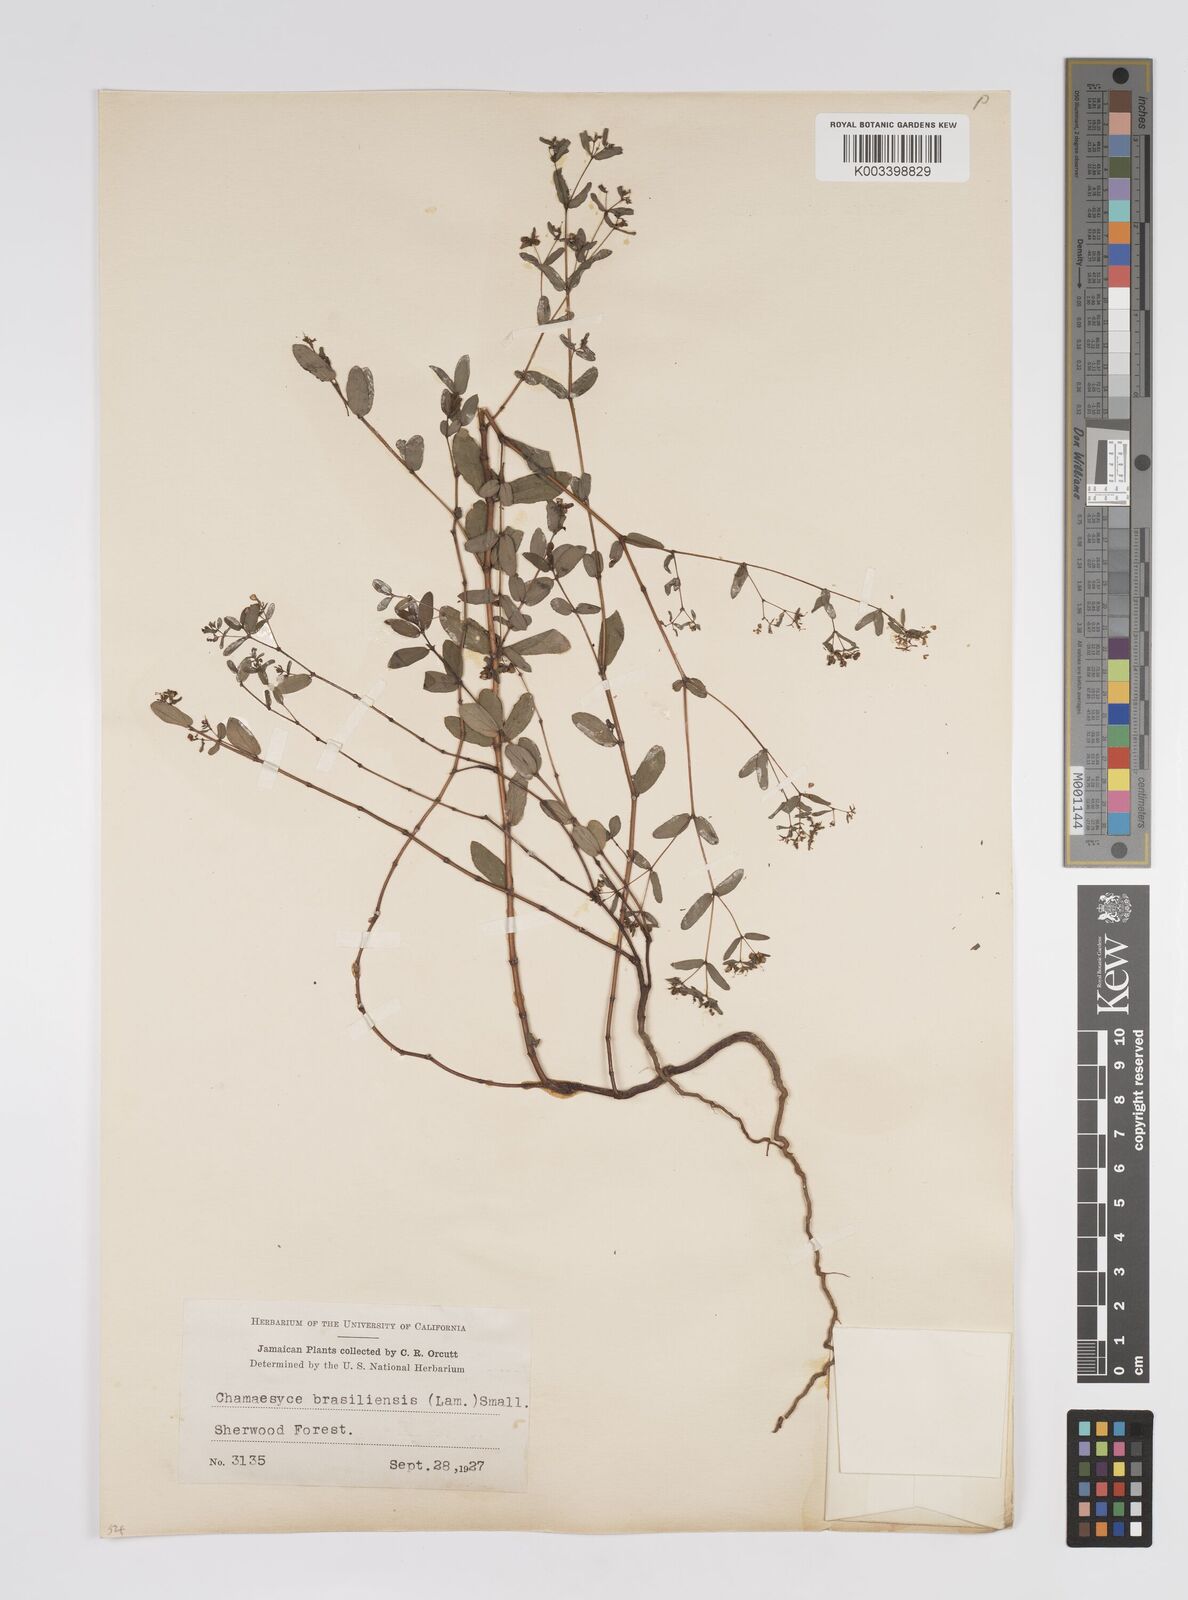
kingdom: Plantae
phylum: Tracheophyta
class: Magnoliopsida
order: Malpighiales
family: Euphorbiaceae
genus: Euphorbia
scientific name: Euphorbia hyssopifolia
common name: Hyssopleaf sandmat
